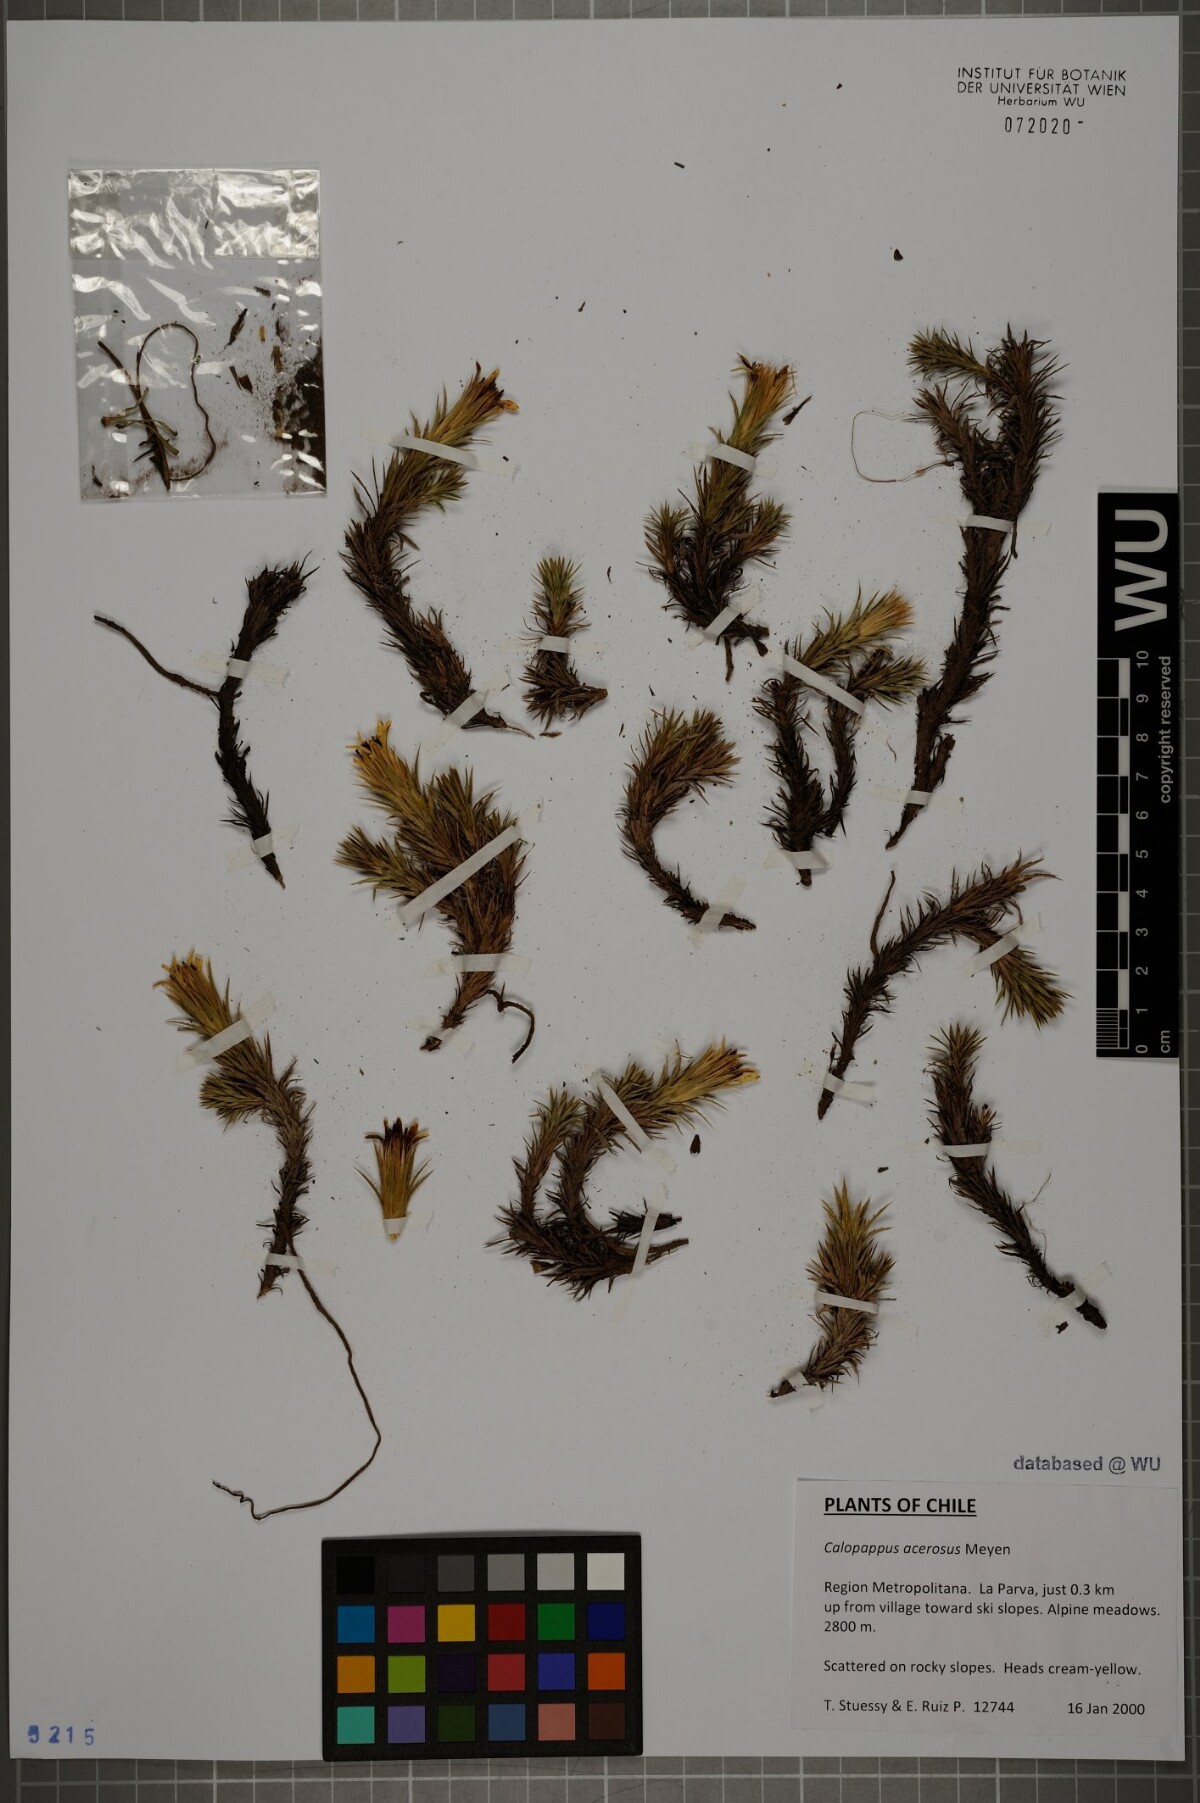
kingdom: Plantae
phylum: Tracheophyta
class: Magnoliopsida
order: Asterales
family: Asteraceae
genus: Nassauvia
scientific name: Nassauvia acerosa
